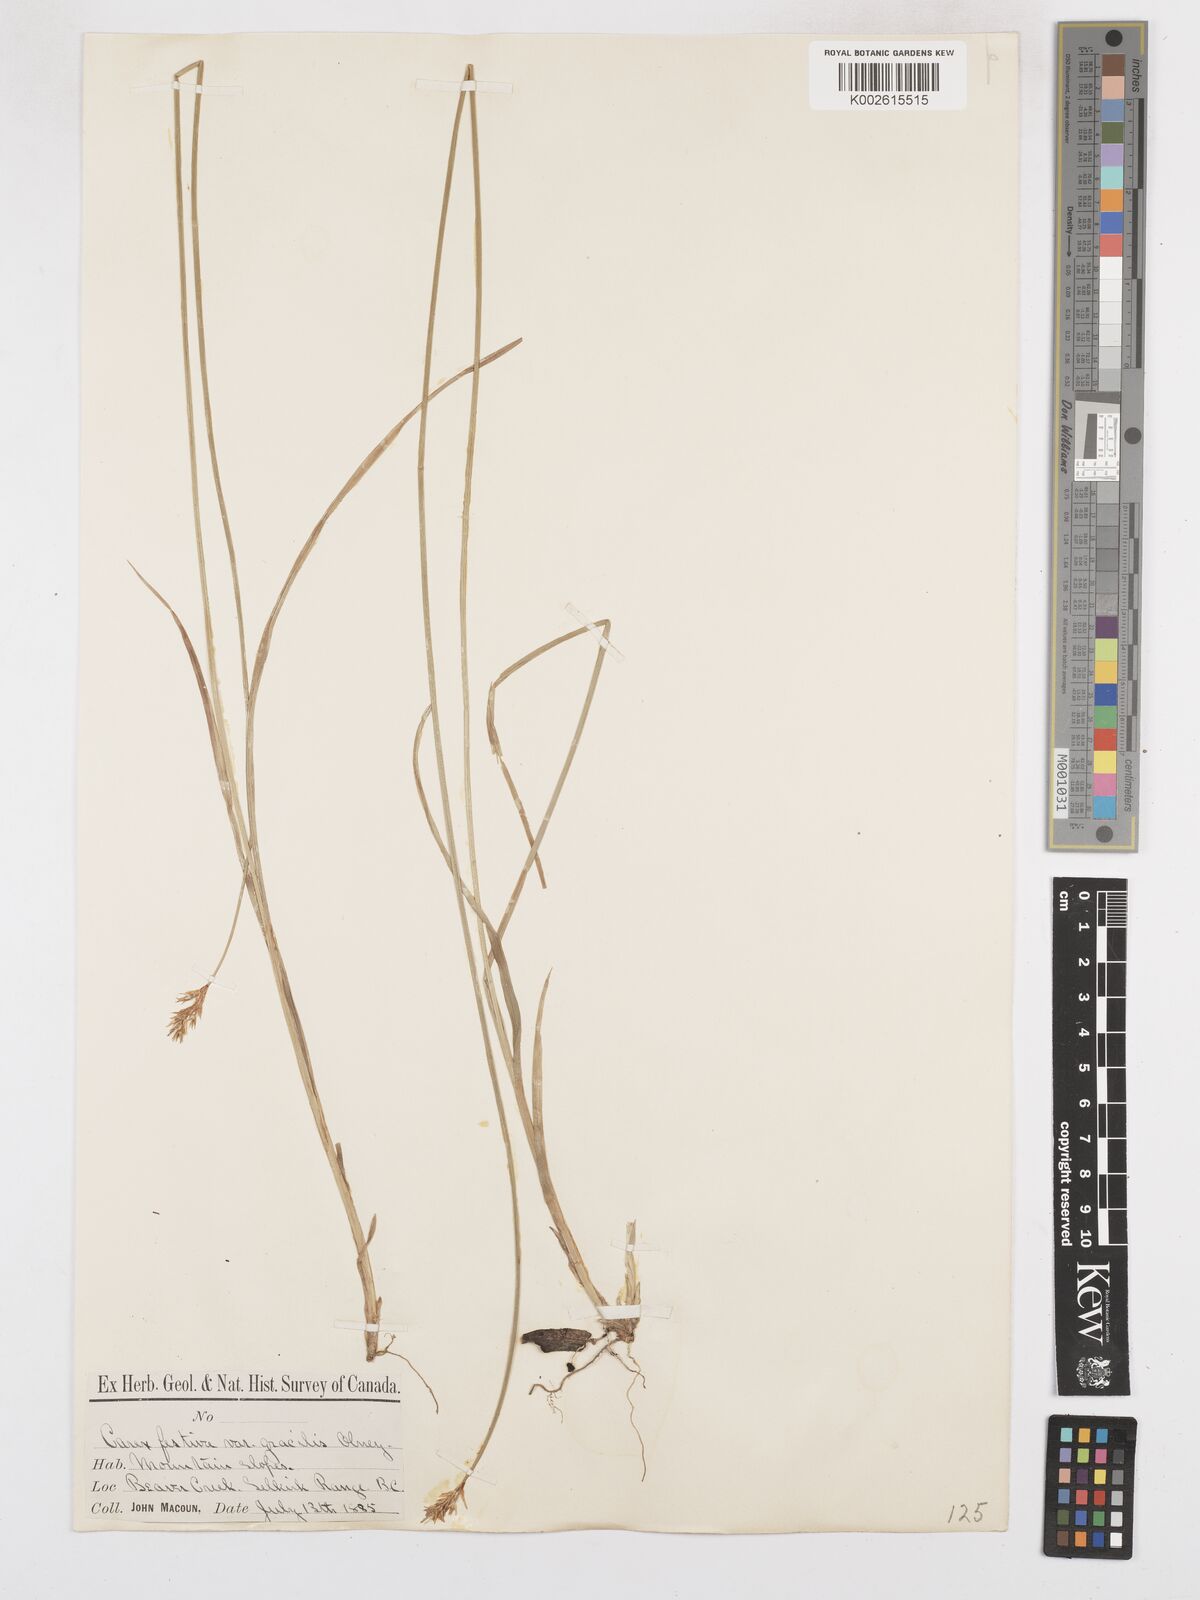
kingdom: Plantae
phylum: Tracheophyta
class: Liliopsida
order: Poales
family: Cyperaceae
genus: Carex
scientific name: Carex macloviana
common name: Falkland island sedge
